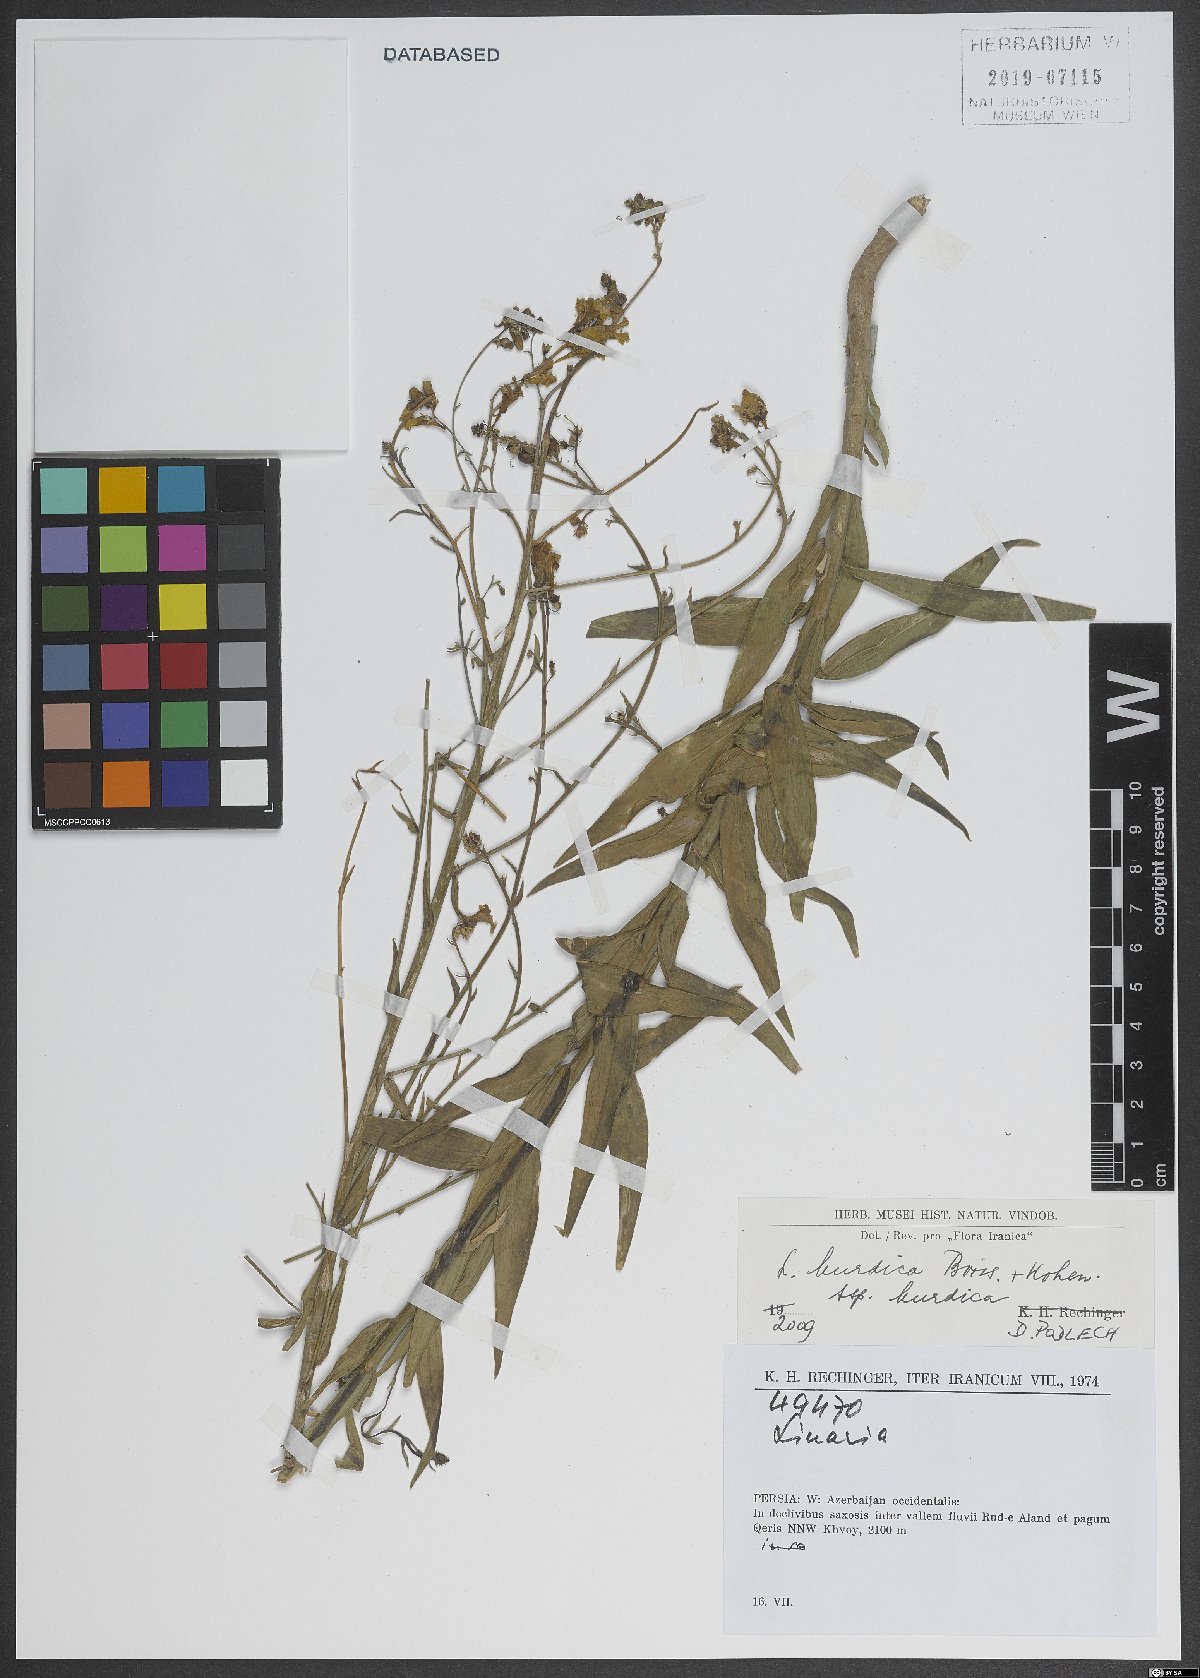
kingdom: Plantae
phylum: Tracheophyta
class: Magnoliopsida
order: Lamiales
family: Plantaginaceae
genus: Linaria
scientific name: Linaria kurdica
